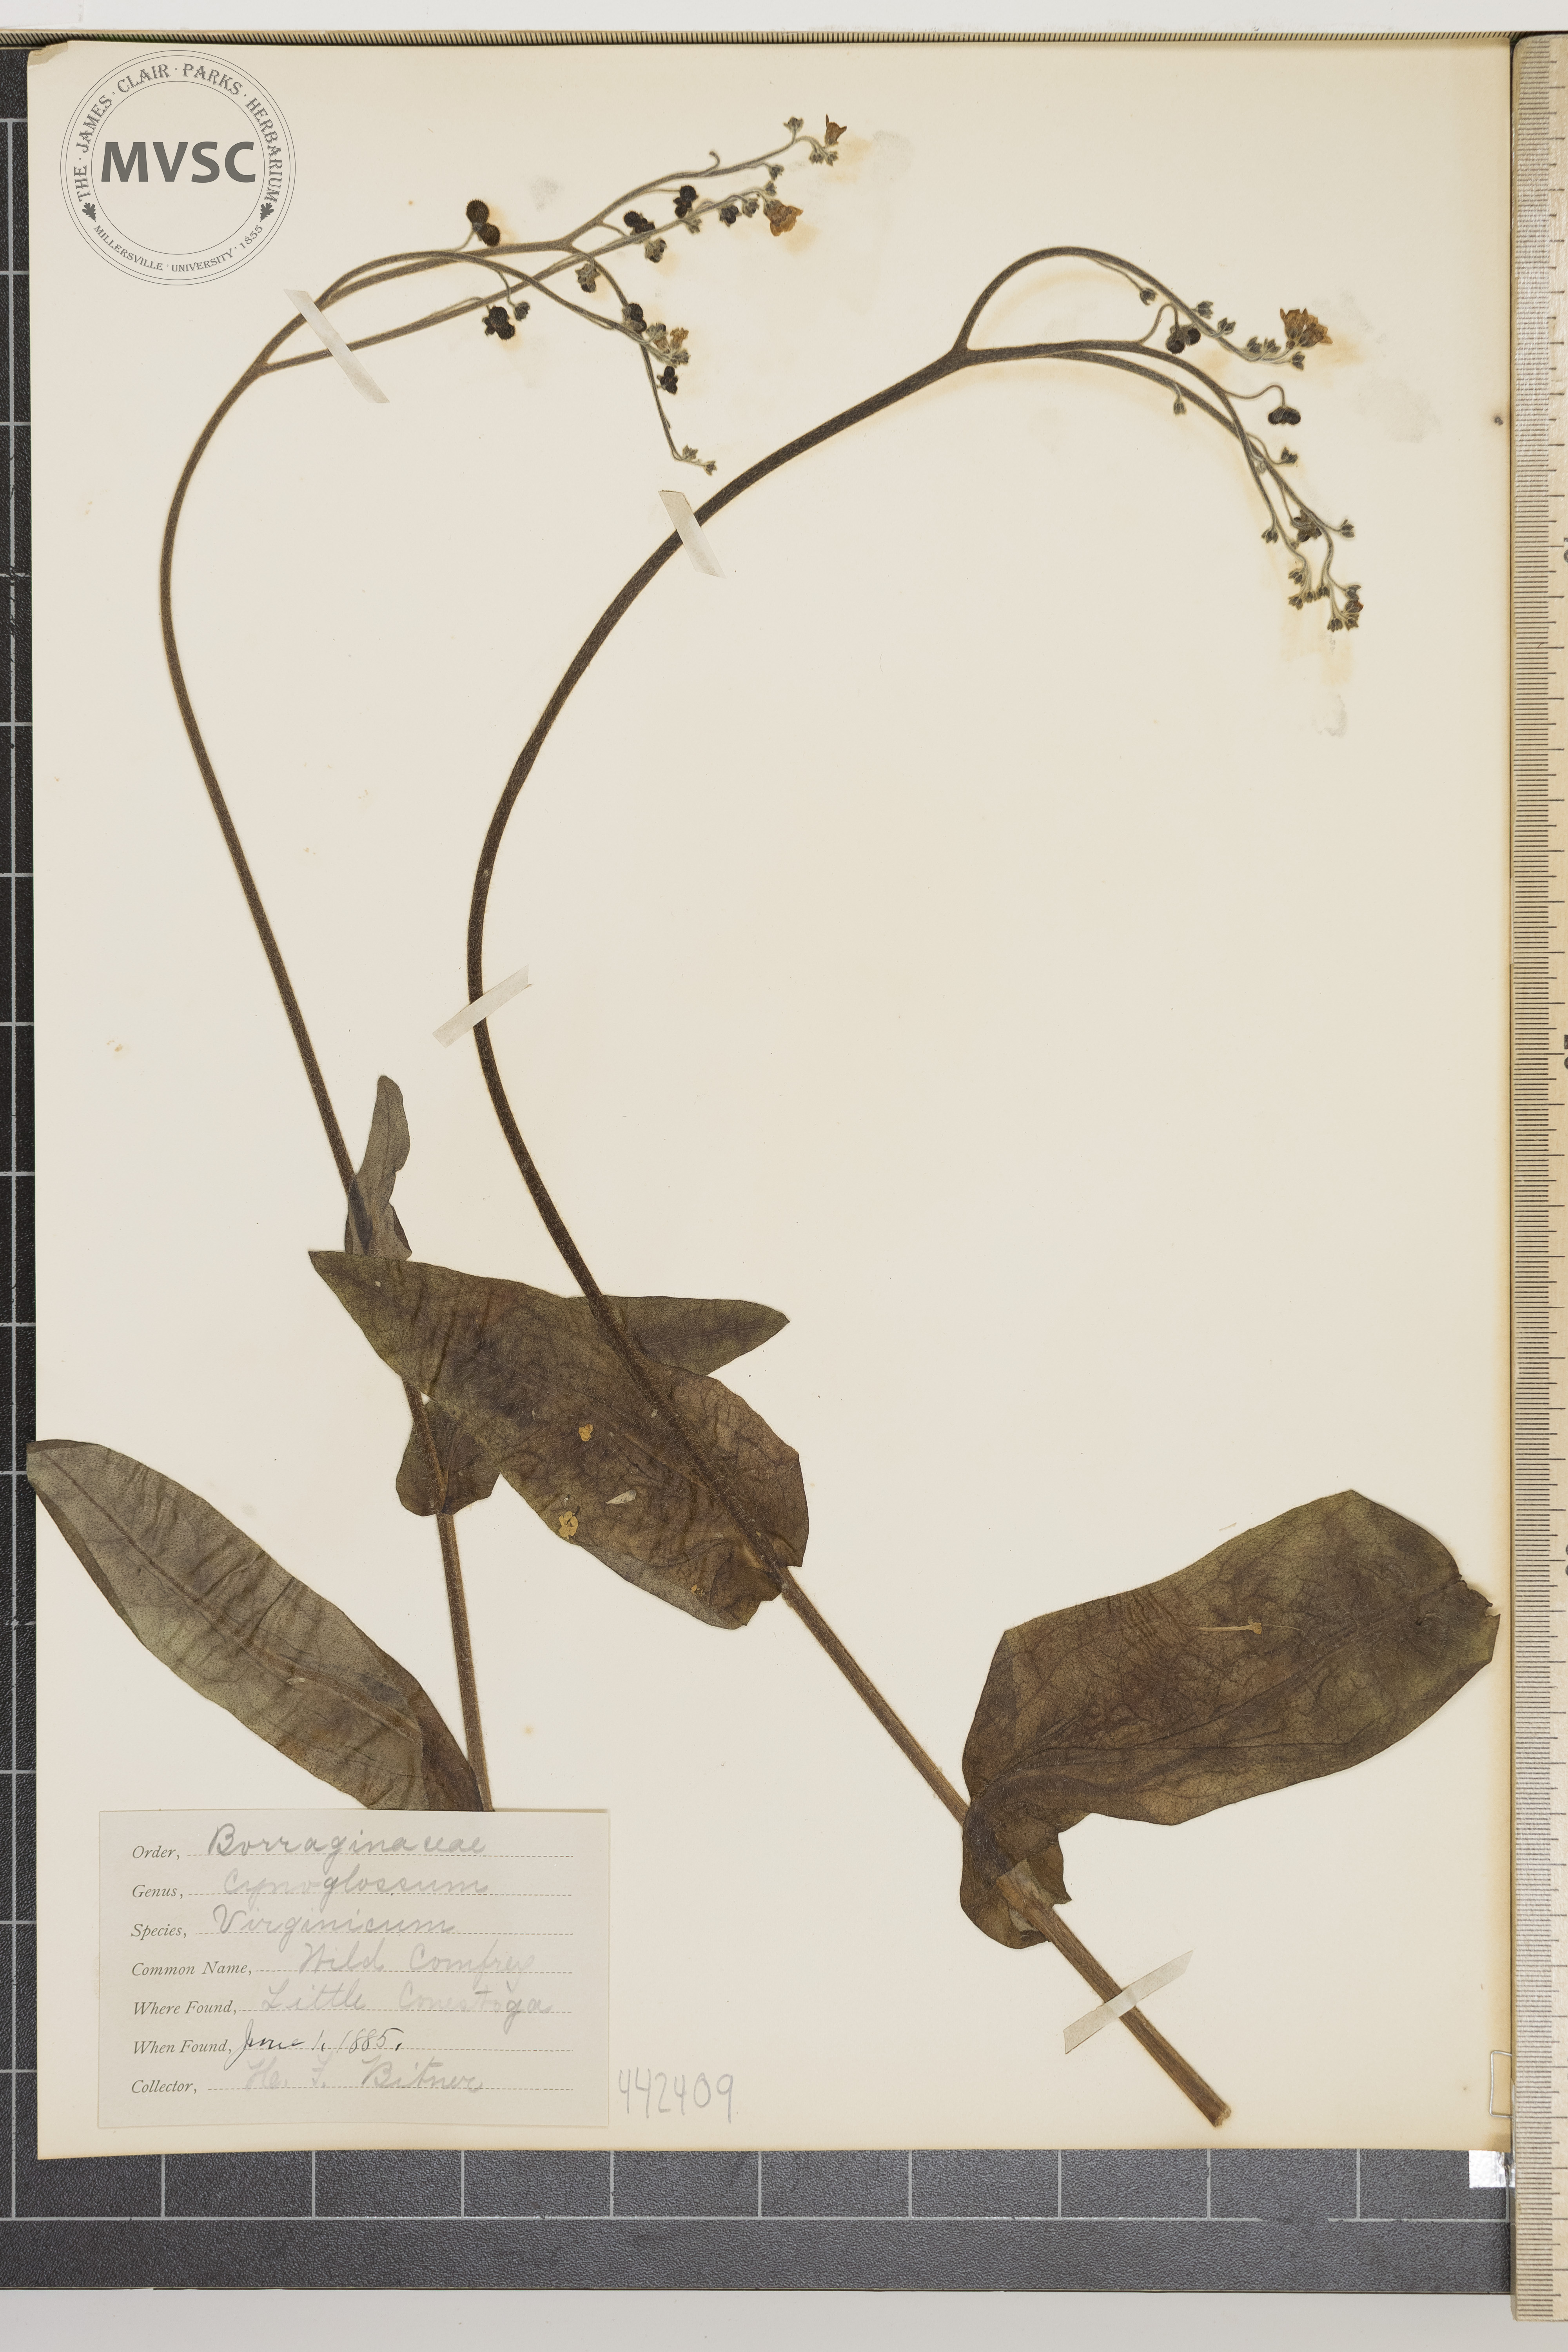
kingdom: Plantae
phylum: Tracheophyta
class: Magnoliopsida
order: Boraginales
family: Boraginaceae
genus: Andersonglossum
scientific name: Andersonglossum virginianum
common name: Wild Comfrey
